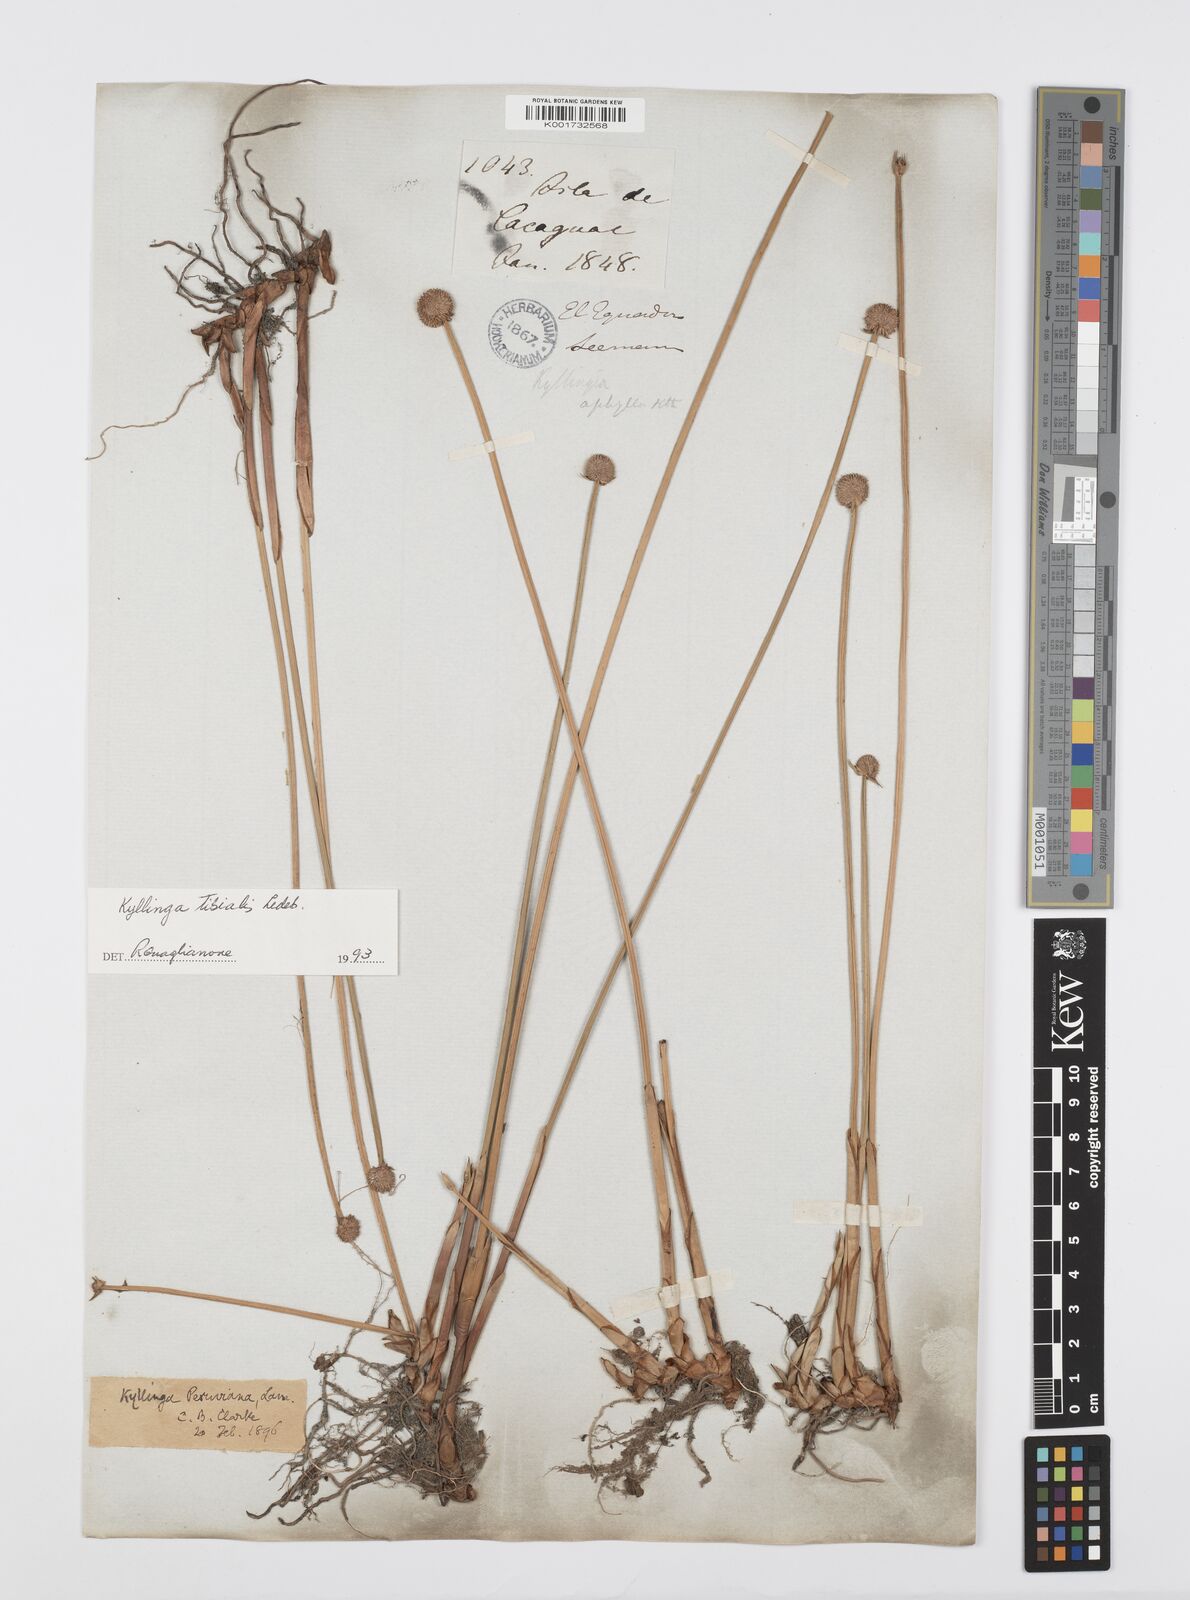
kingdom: Plantae
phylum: Tracheophyta
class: Liliopsida
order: Poales
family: Cyperaceae
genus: Cyperus
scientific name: Cyperus obtusatus
